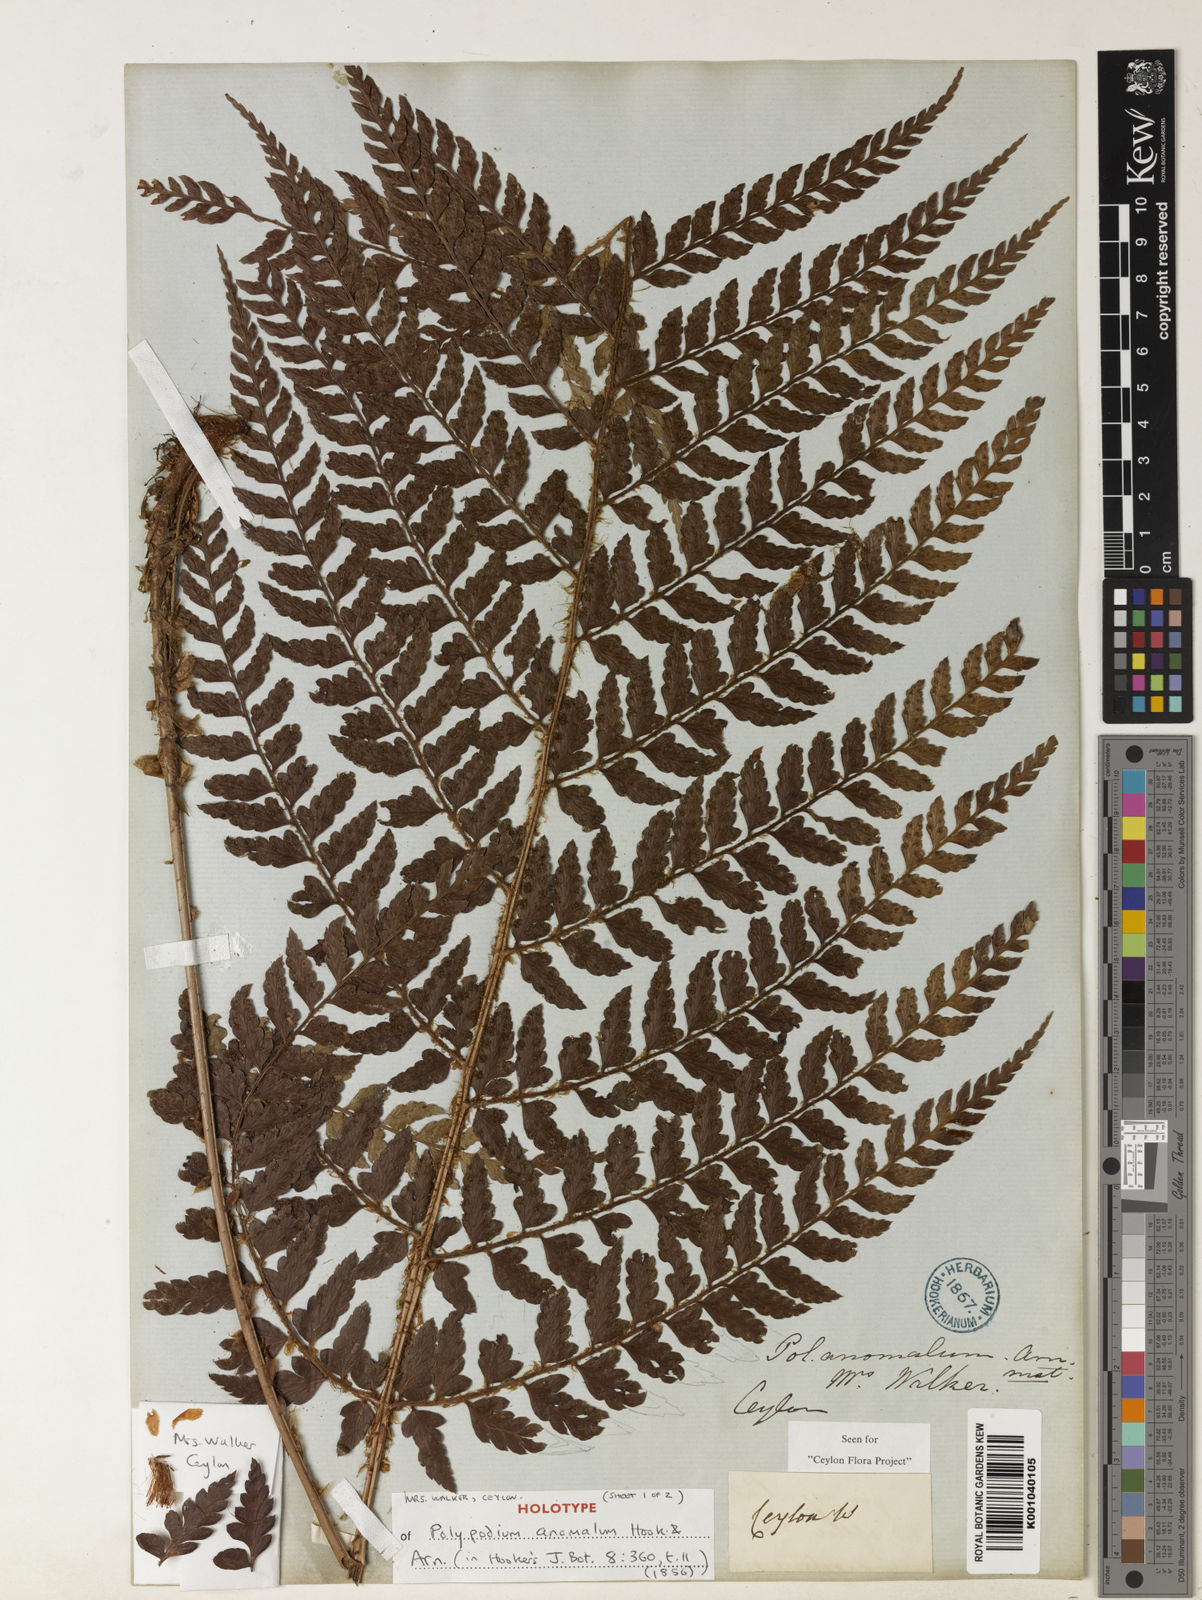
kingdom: Plantae
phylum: Tracheophyta
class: Polypodiopsida
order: Polypodiales
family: Dryopteridaceae
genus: Polystichum
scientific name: Polystichum anomalum
